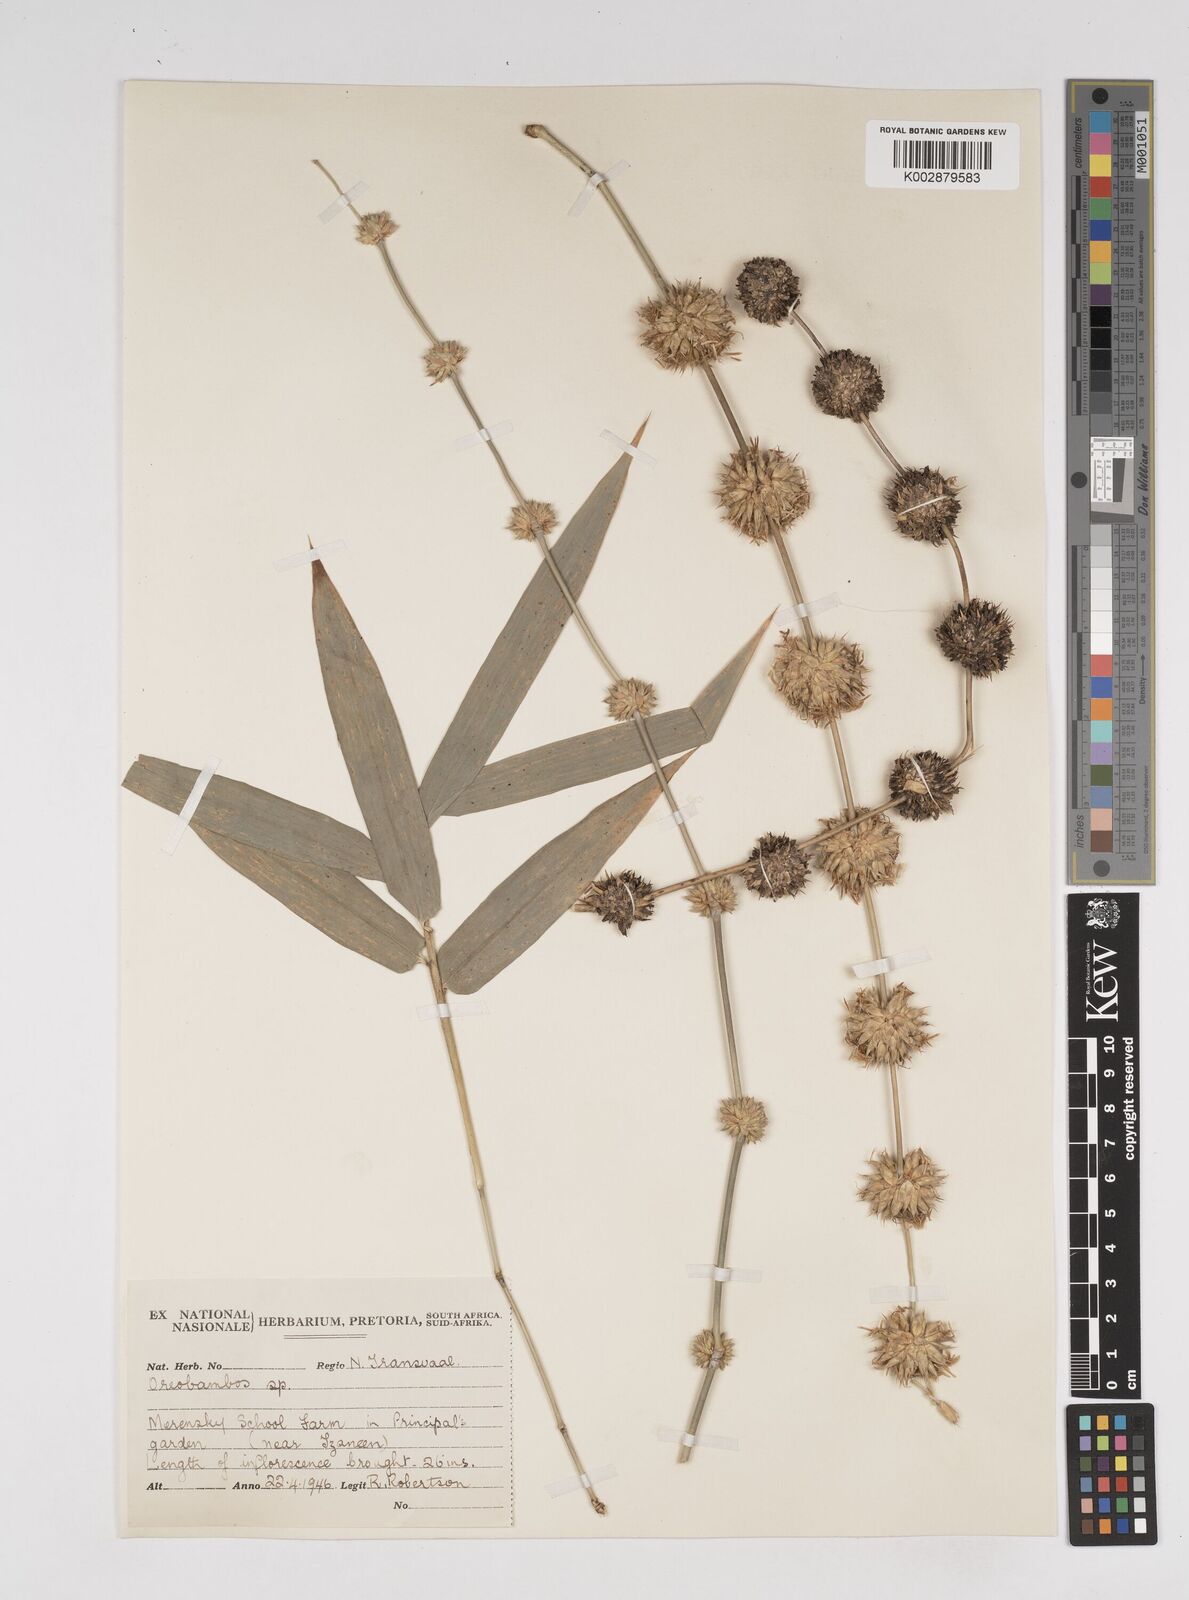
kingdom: Plantae
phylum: Tracheophyta
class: Liliopsida
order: Poales
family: Poaceae
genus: Dendrocalamus
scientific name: Dendrocalamus strictus
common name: Male bamboo
